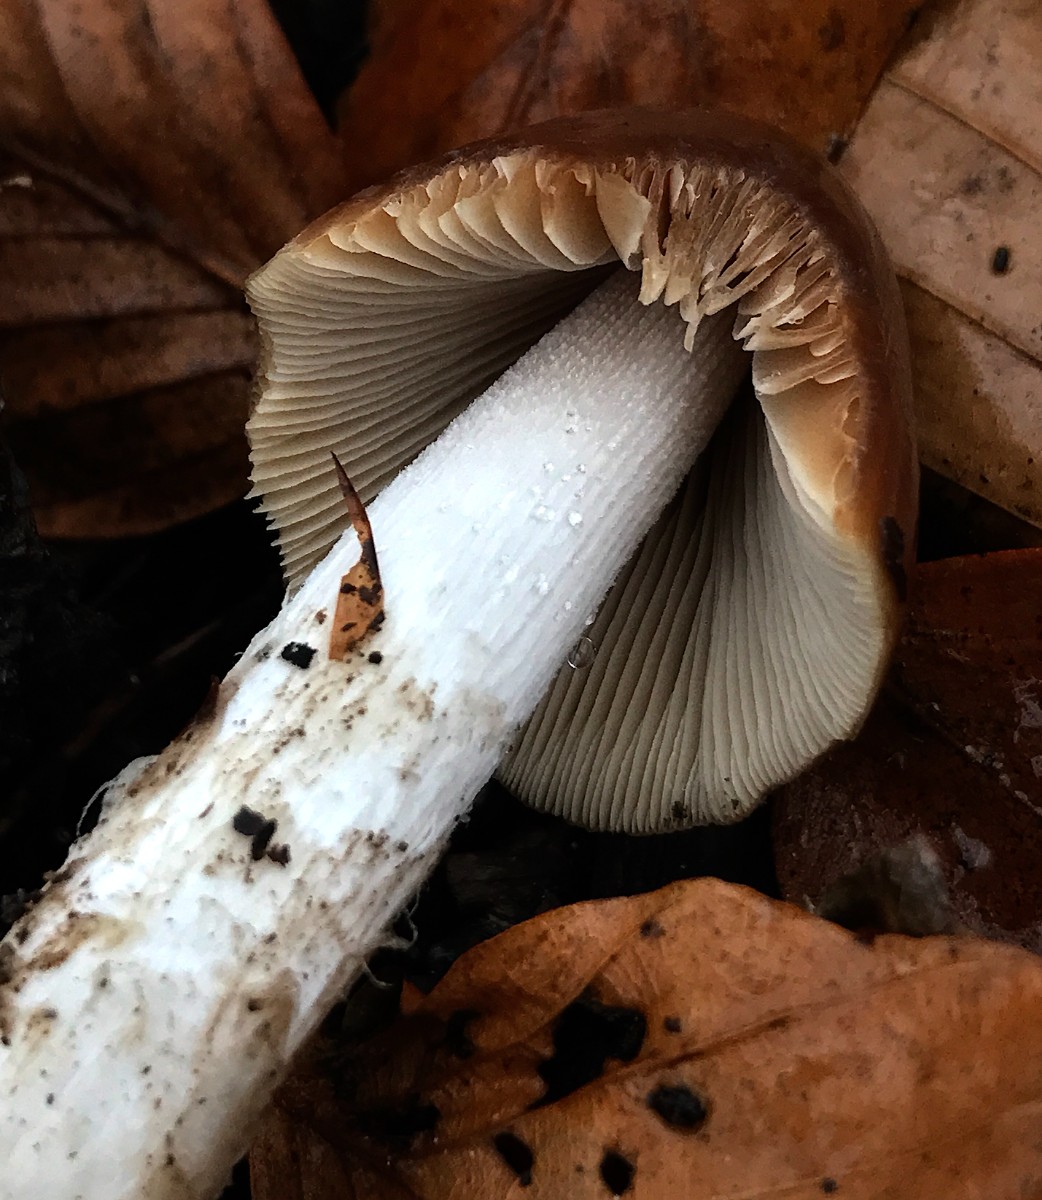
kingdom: Fungi
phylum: Basidiomycota
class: Agaricomycetes
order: Agaricales
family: Psathyrellaceae
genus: Psathyrella
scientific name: Psathyrella
